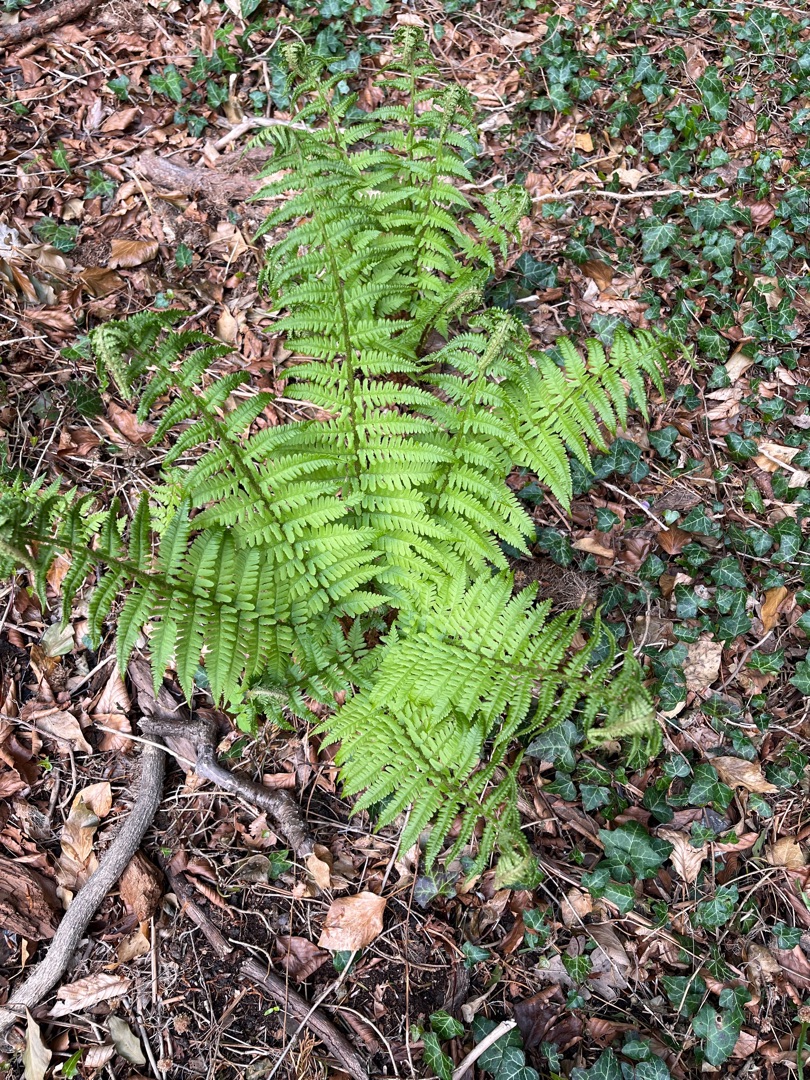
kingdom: Plantae
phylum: Tracheophyta
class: Polypodiopsida
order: Polypodiales
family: Dryopteridaceae
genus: Dryopteris
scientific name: Dryopteris filix-mas
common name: Almindelig mangeløv
